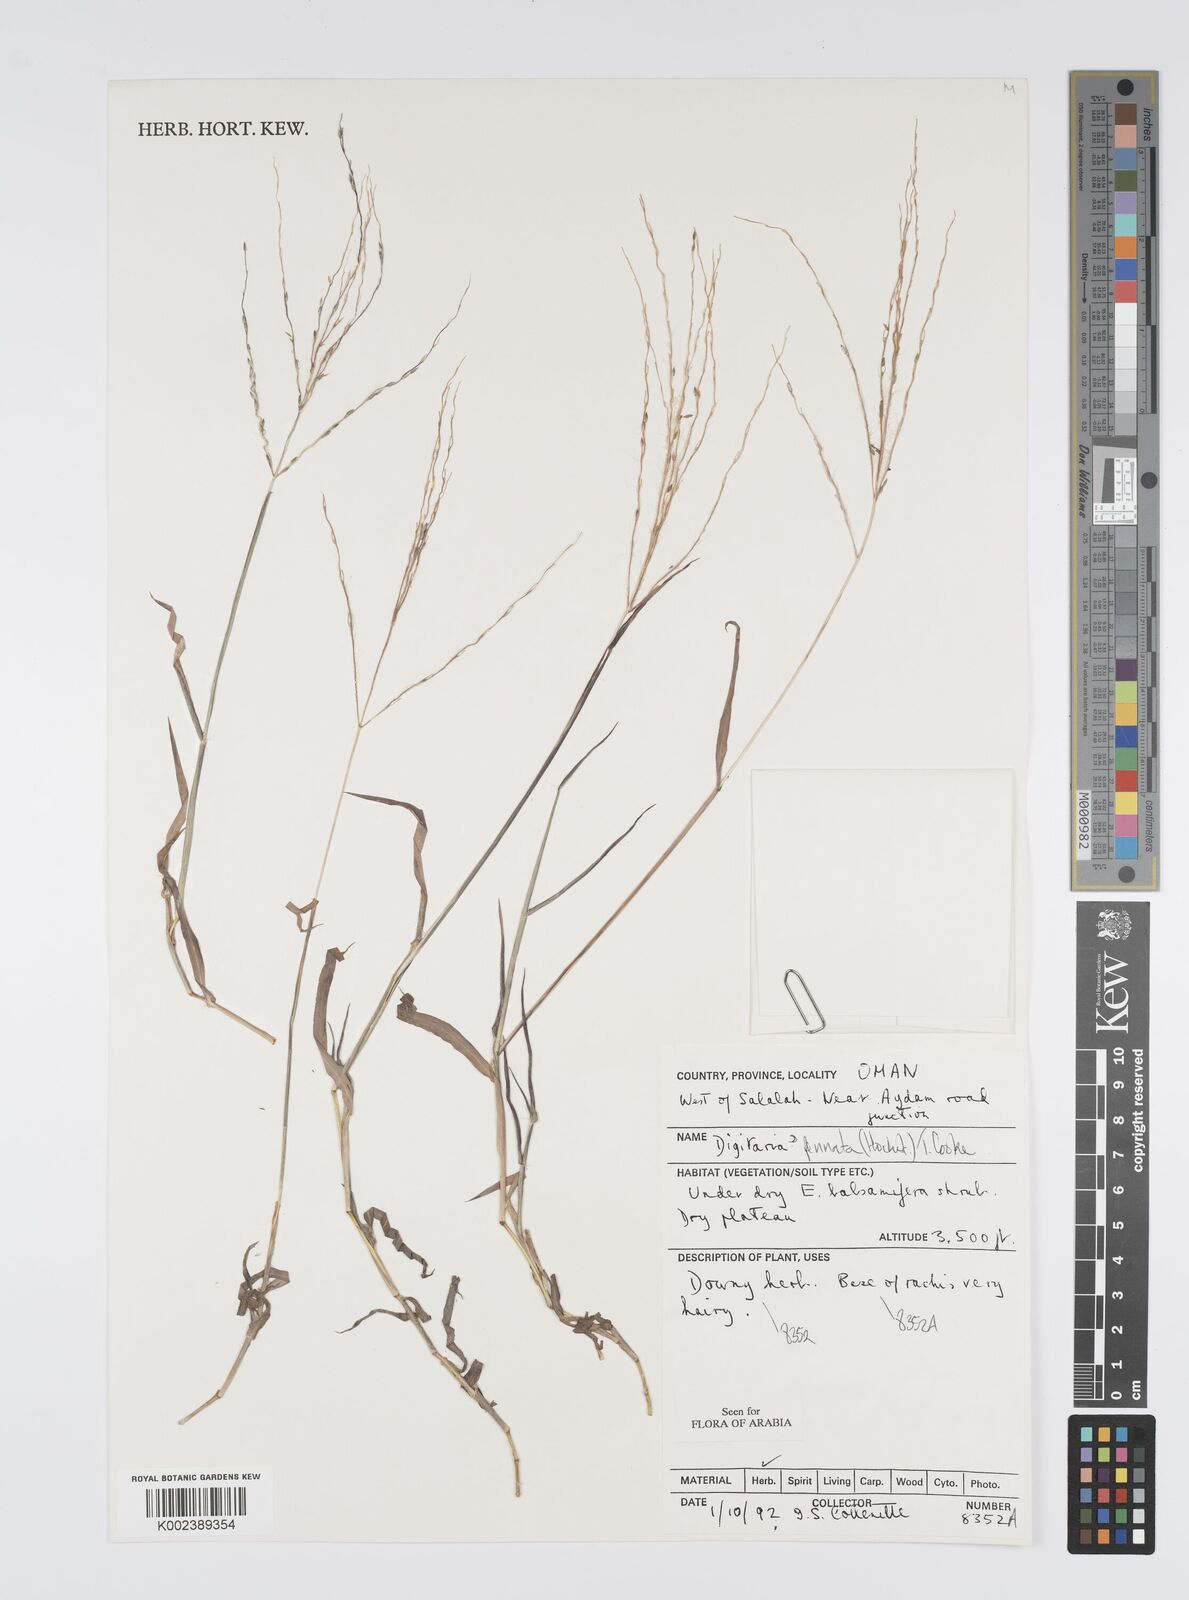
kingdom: Plantae
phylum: Tracheophyta
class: Liliopsida
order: Poales
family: Poaceae
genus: Digitaria
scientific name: Digitaria pennata
